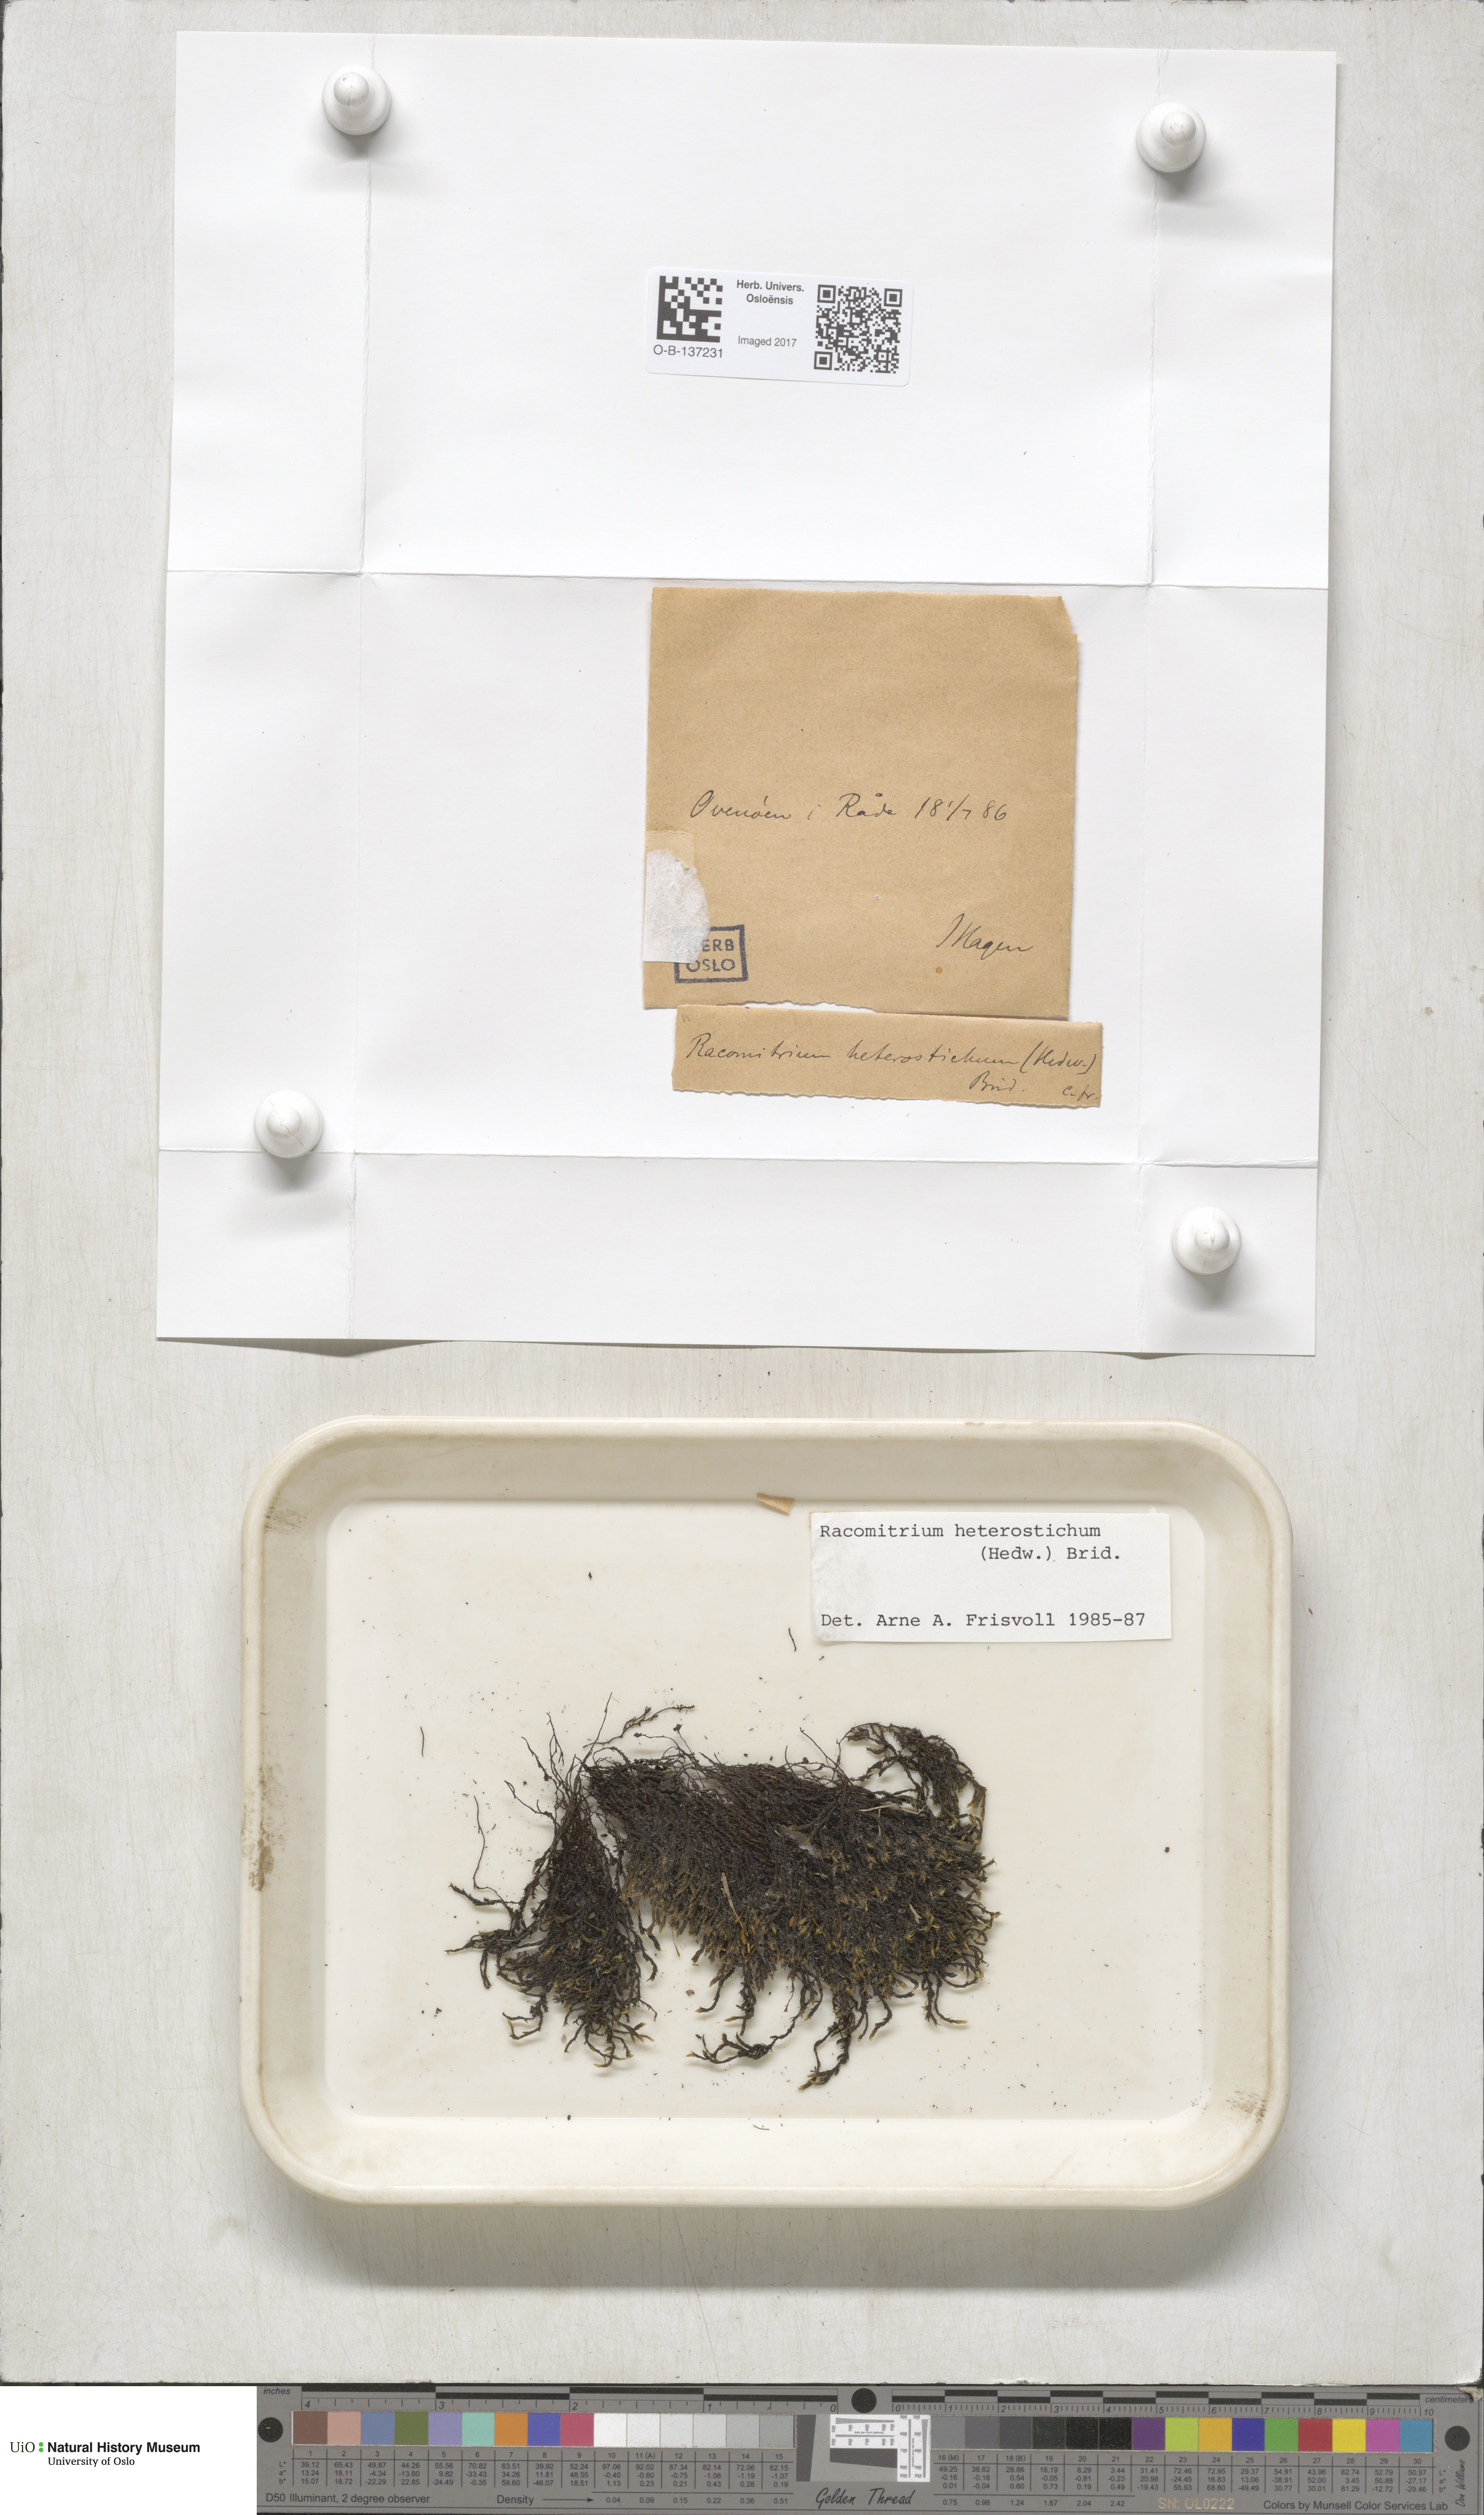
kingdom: Plantae
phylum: Bryophyta
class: Bryopsida
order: Grimmiales
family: Grimmiaceae
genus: Bucklandiella
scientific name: Bucklandiella heterosticha
